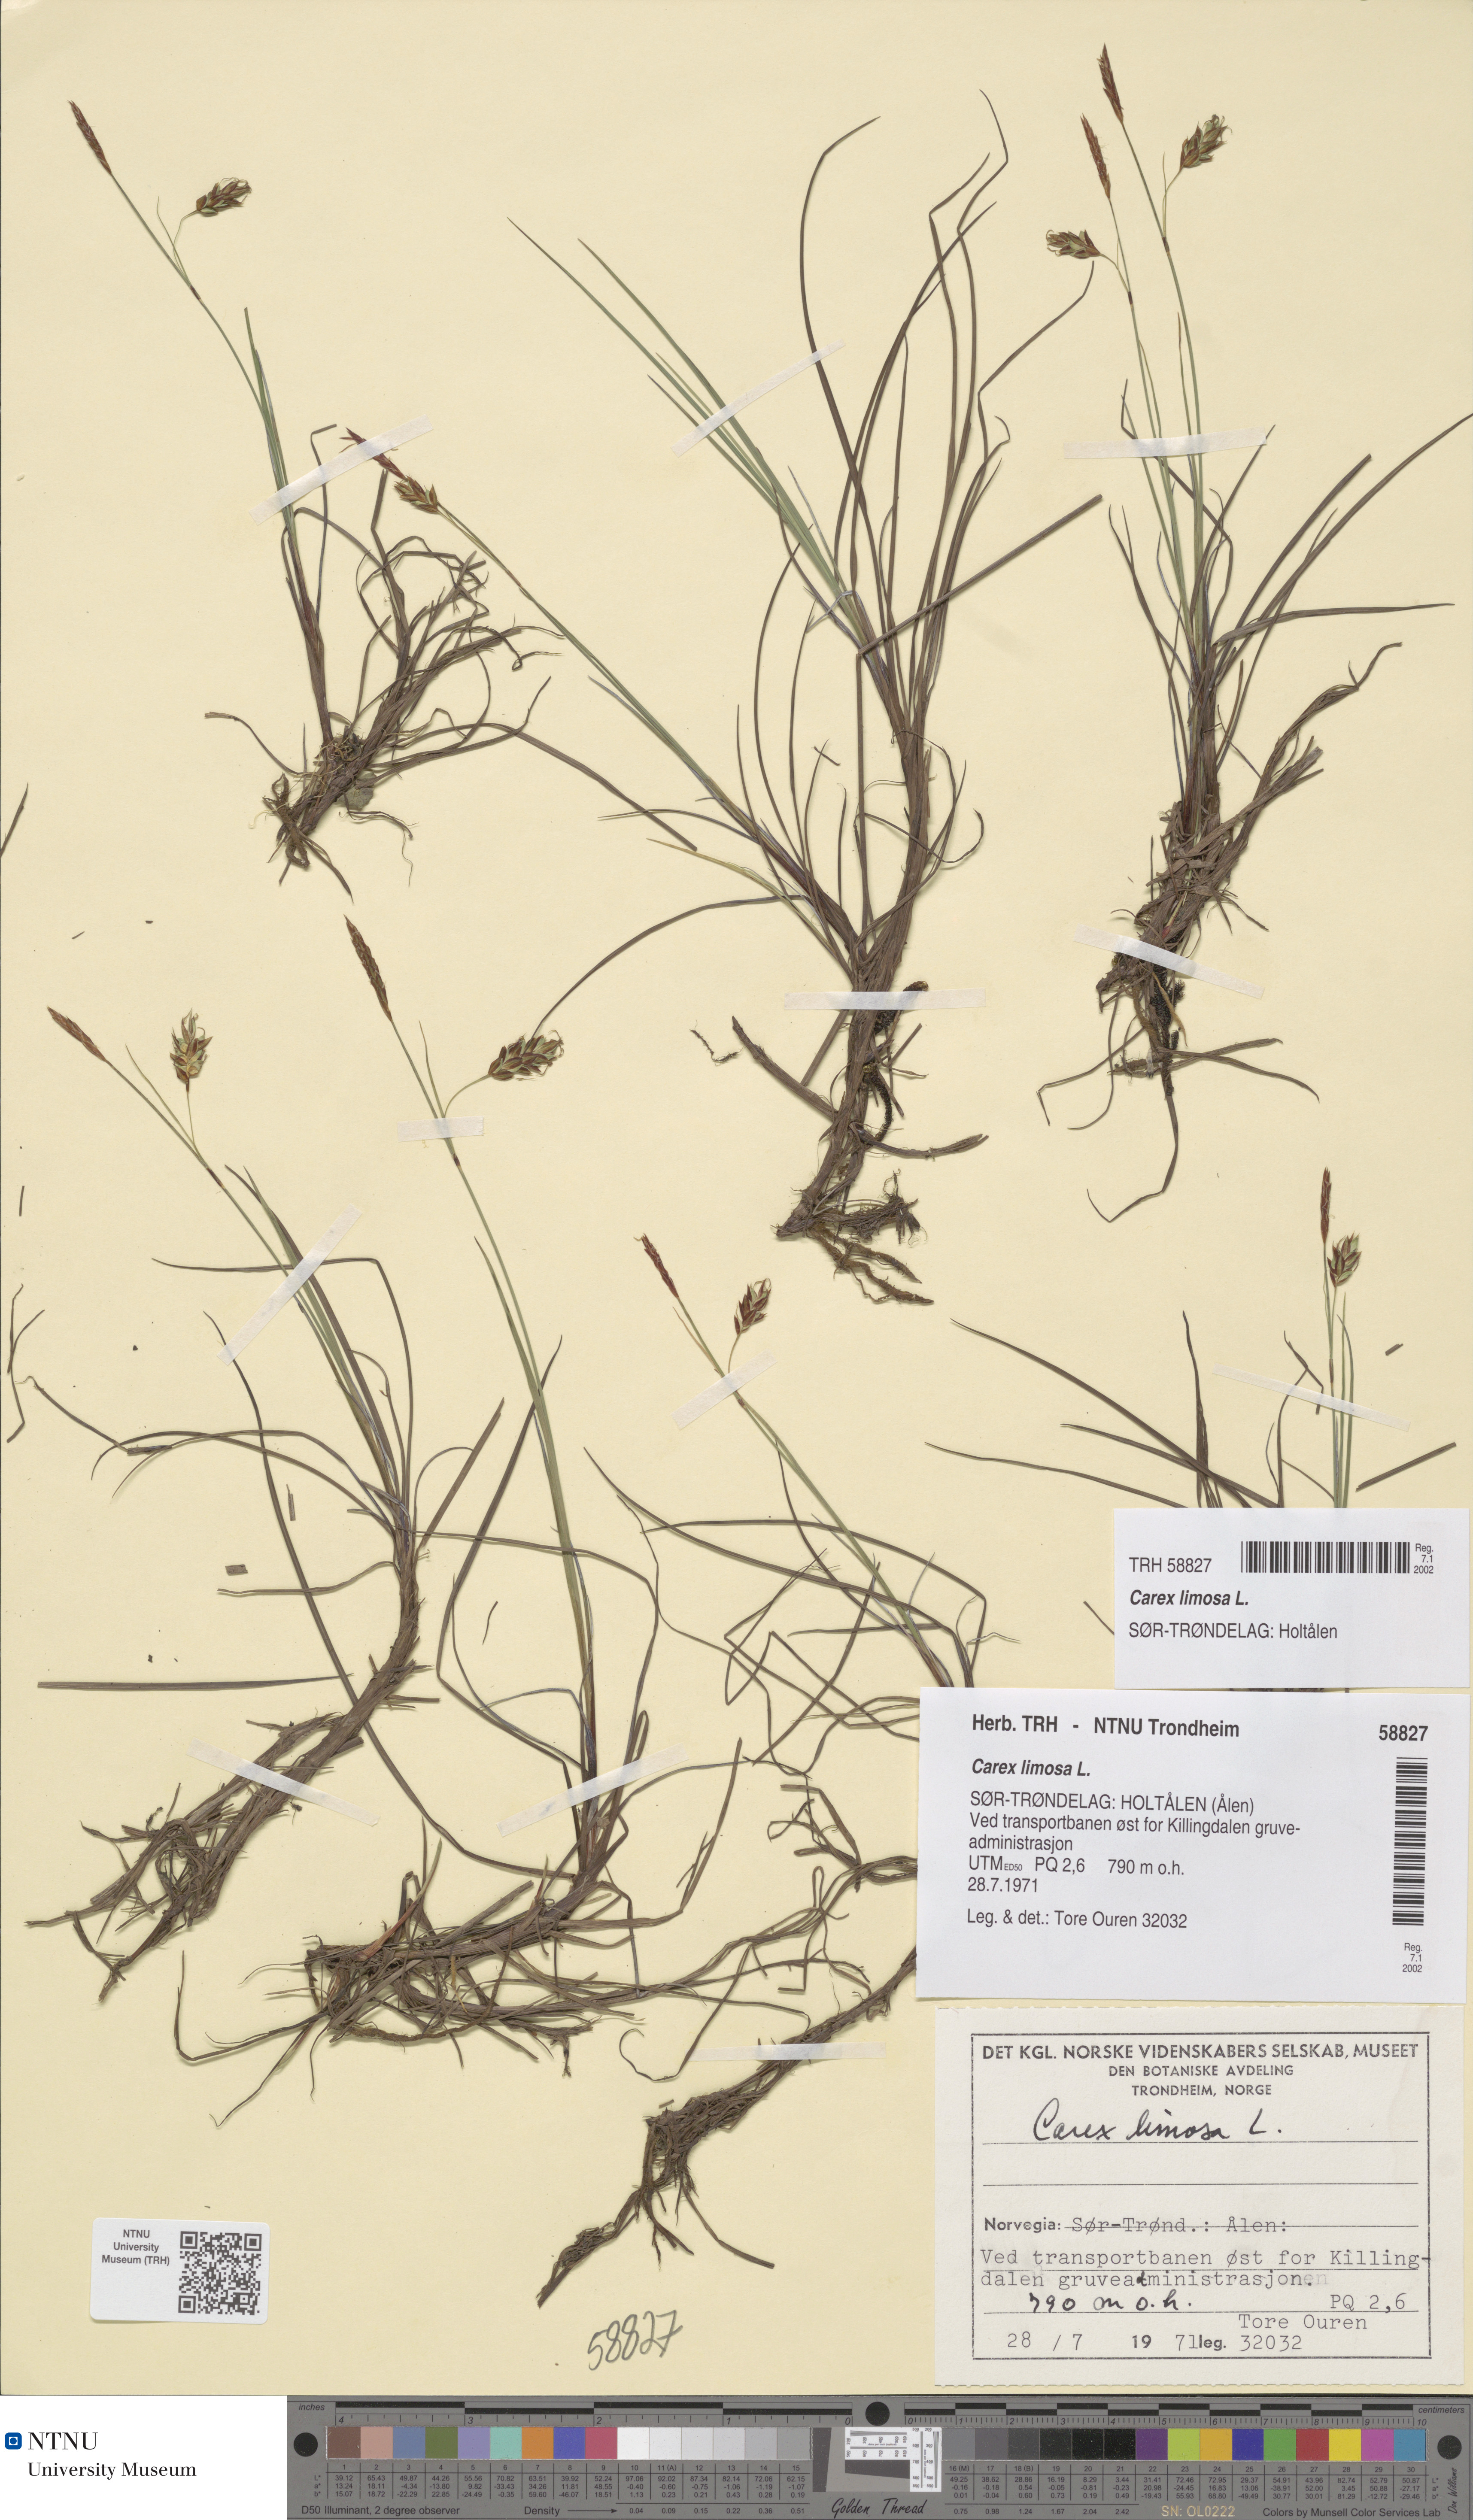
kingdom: Plantae
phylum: Tracheophyta
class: Liliopsida
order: Poales
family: Cyperaceae
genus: Carex
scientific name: Carex limosa
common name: Bog sedge
